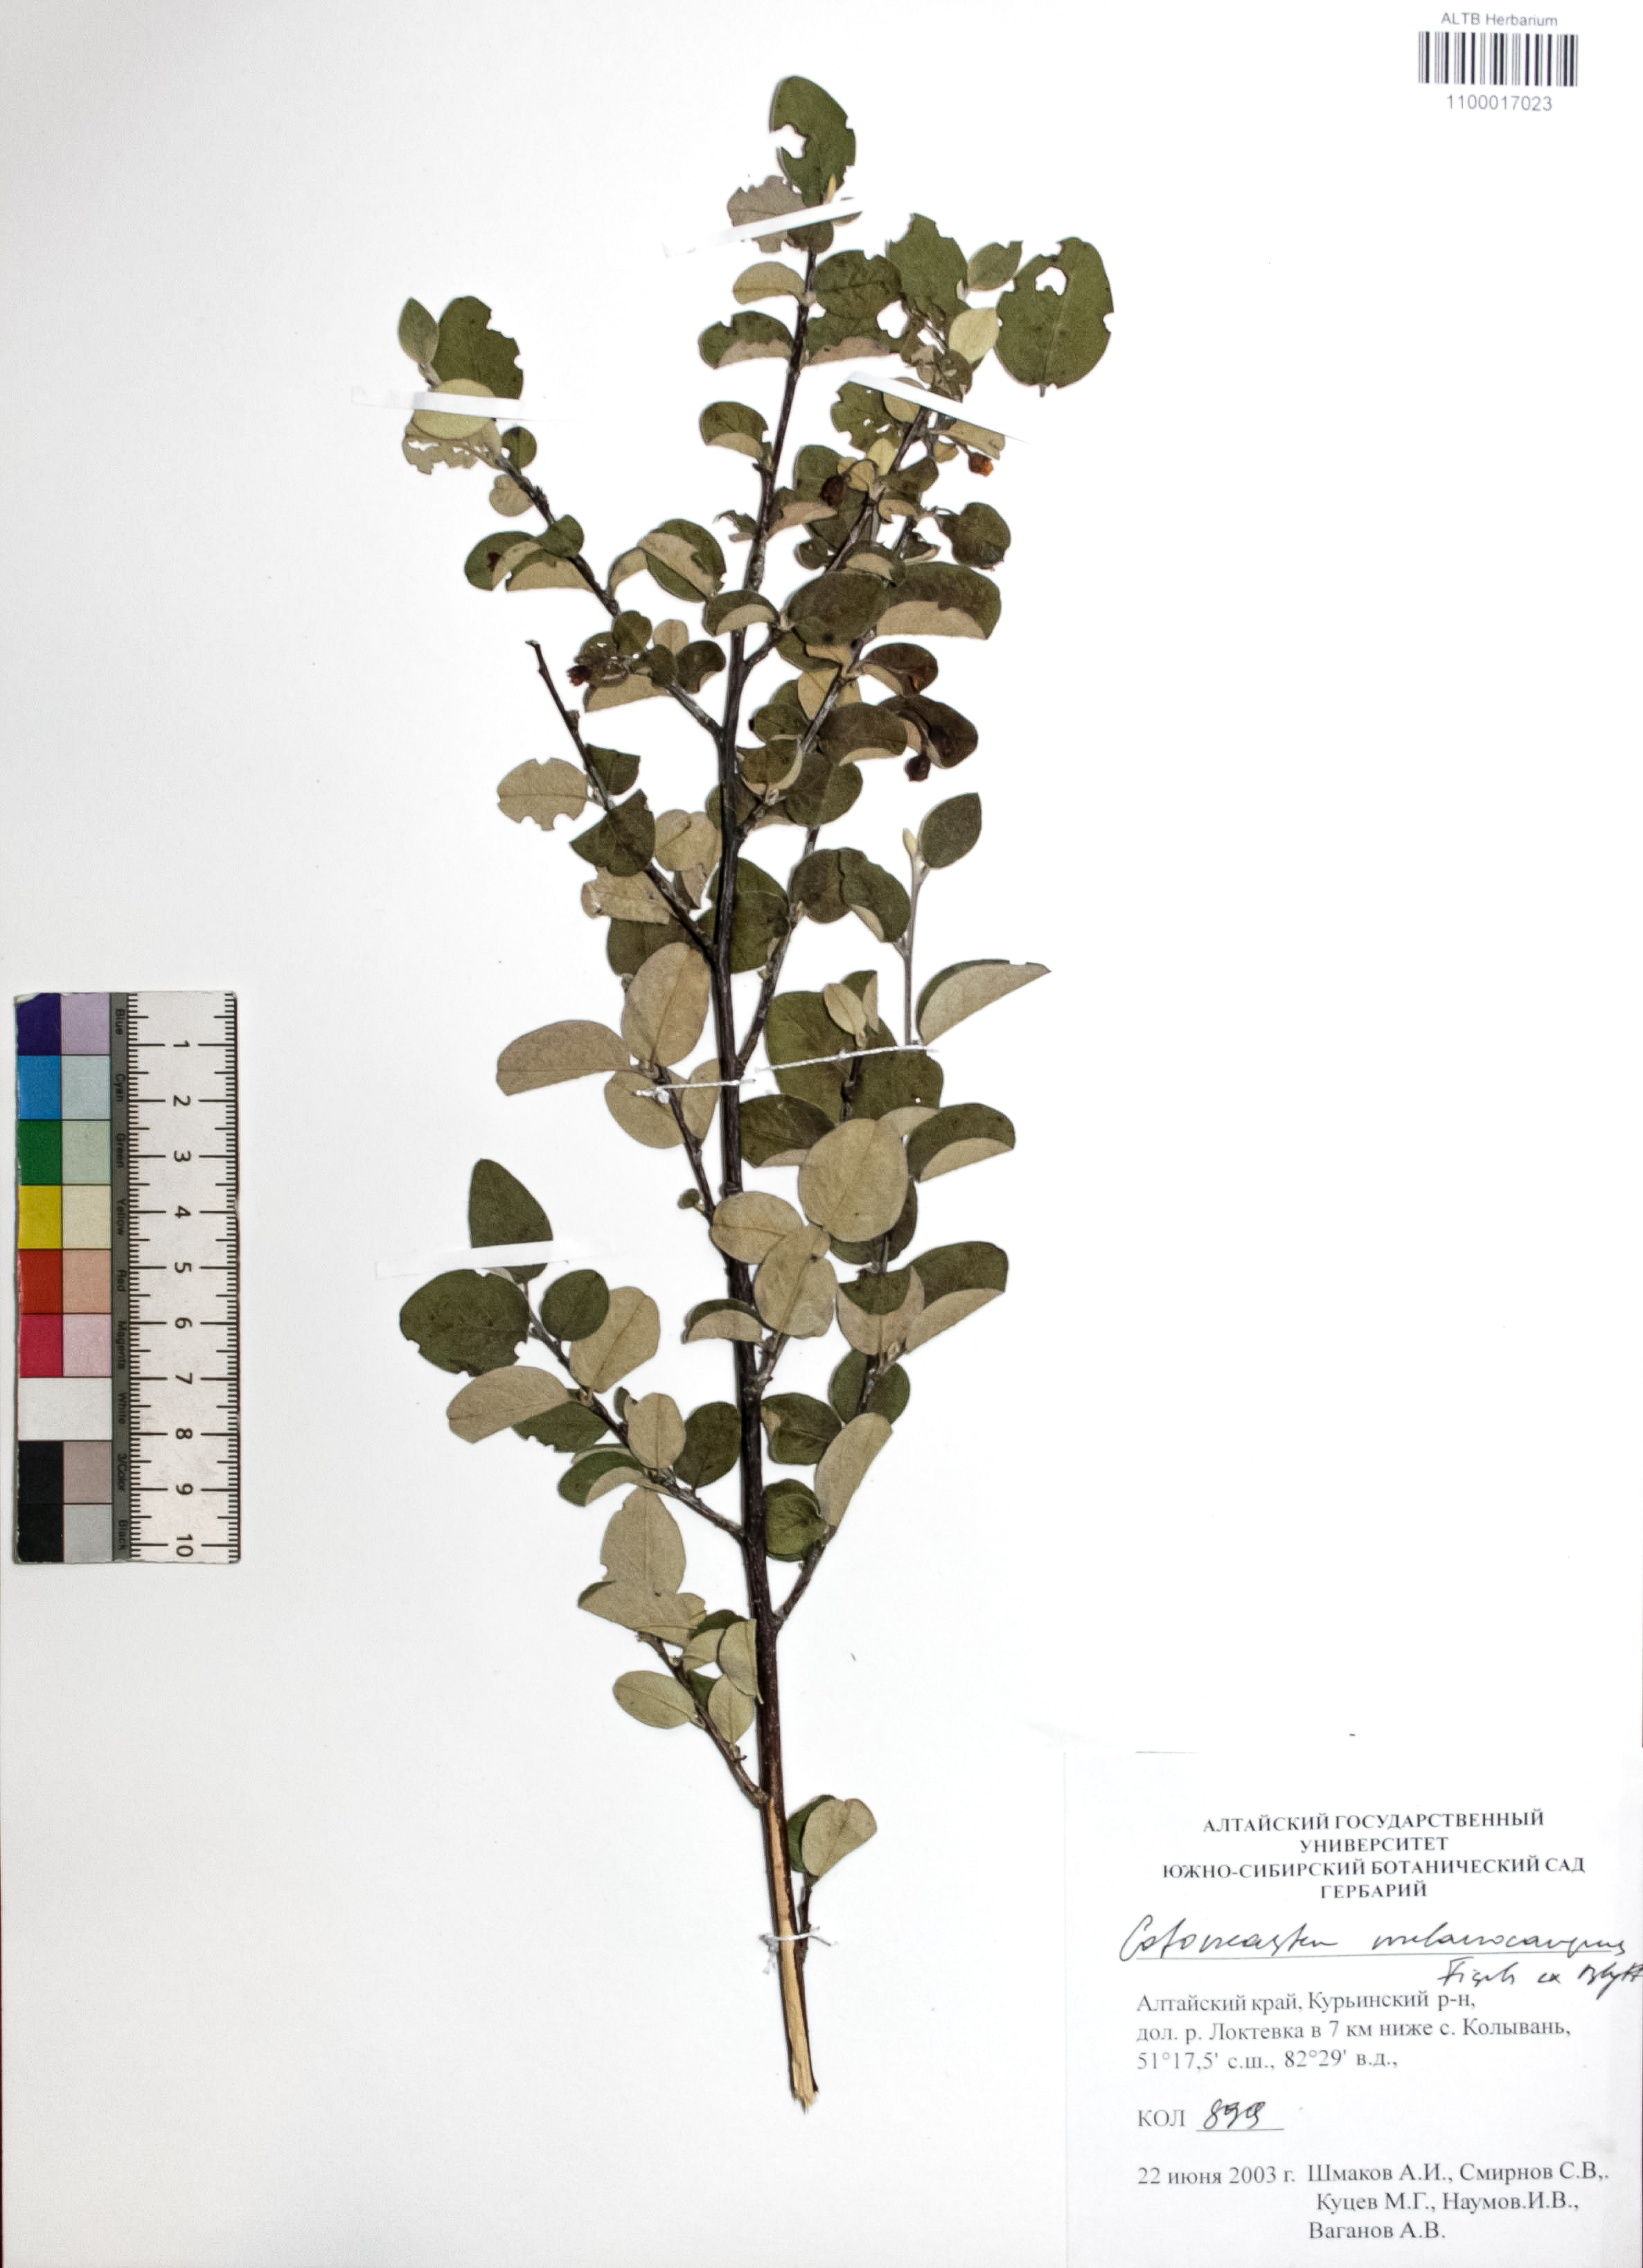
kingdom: Plantae
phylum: Tracheophyta
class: Magnoliopsida
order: Rosales
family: Rosaceae
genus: Cotoneaster
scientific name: Cotoneaster niger
